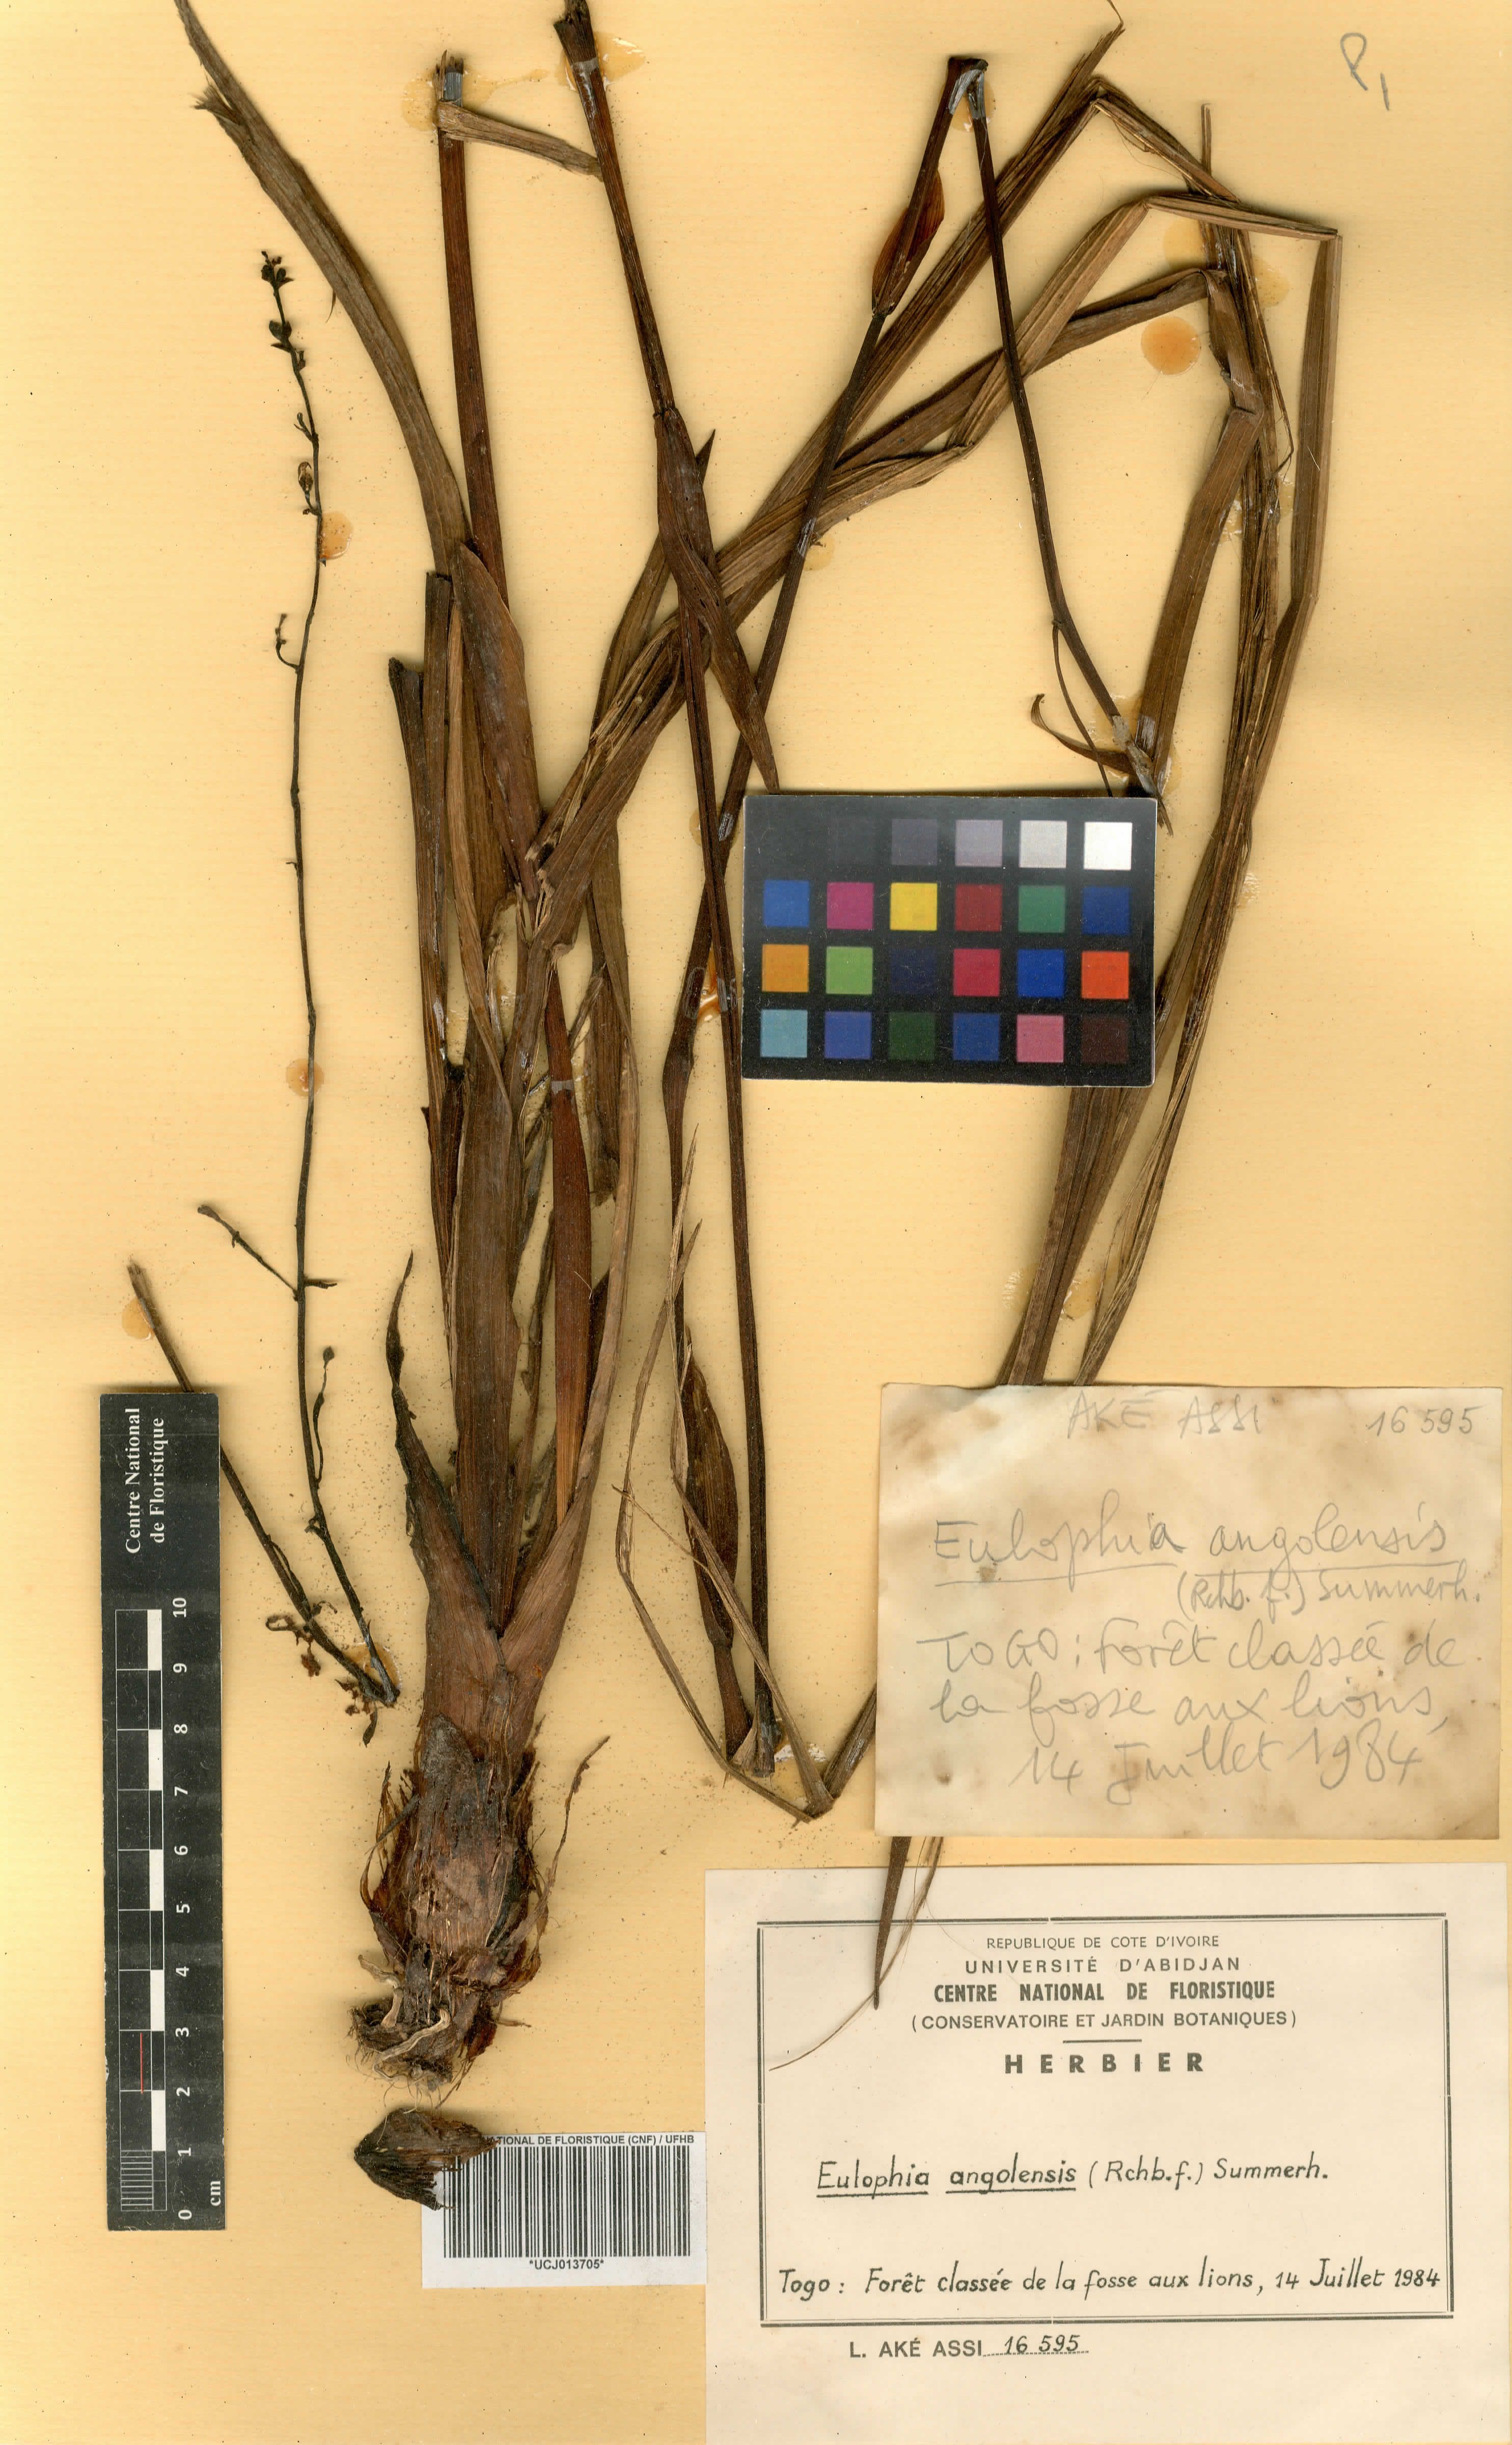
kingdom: Plantae
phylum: Tracheophyta
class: Liliopsida
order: Asparagales
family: Orchidaceae
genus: Eulophia
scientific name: Eulophia angolensis
